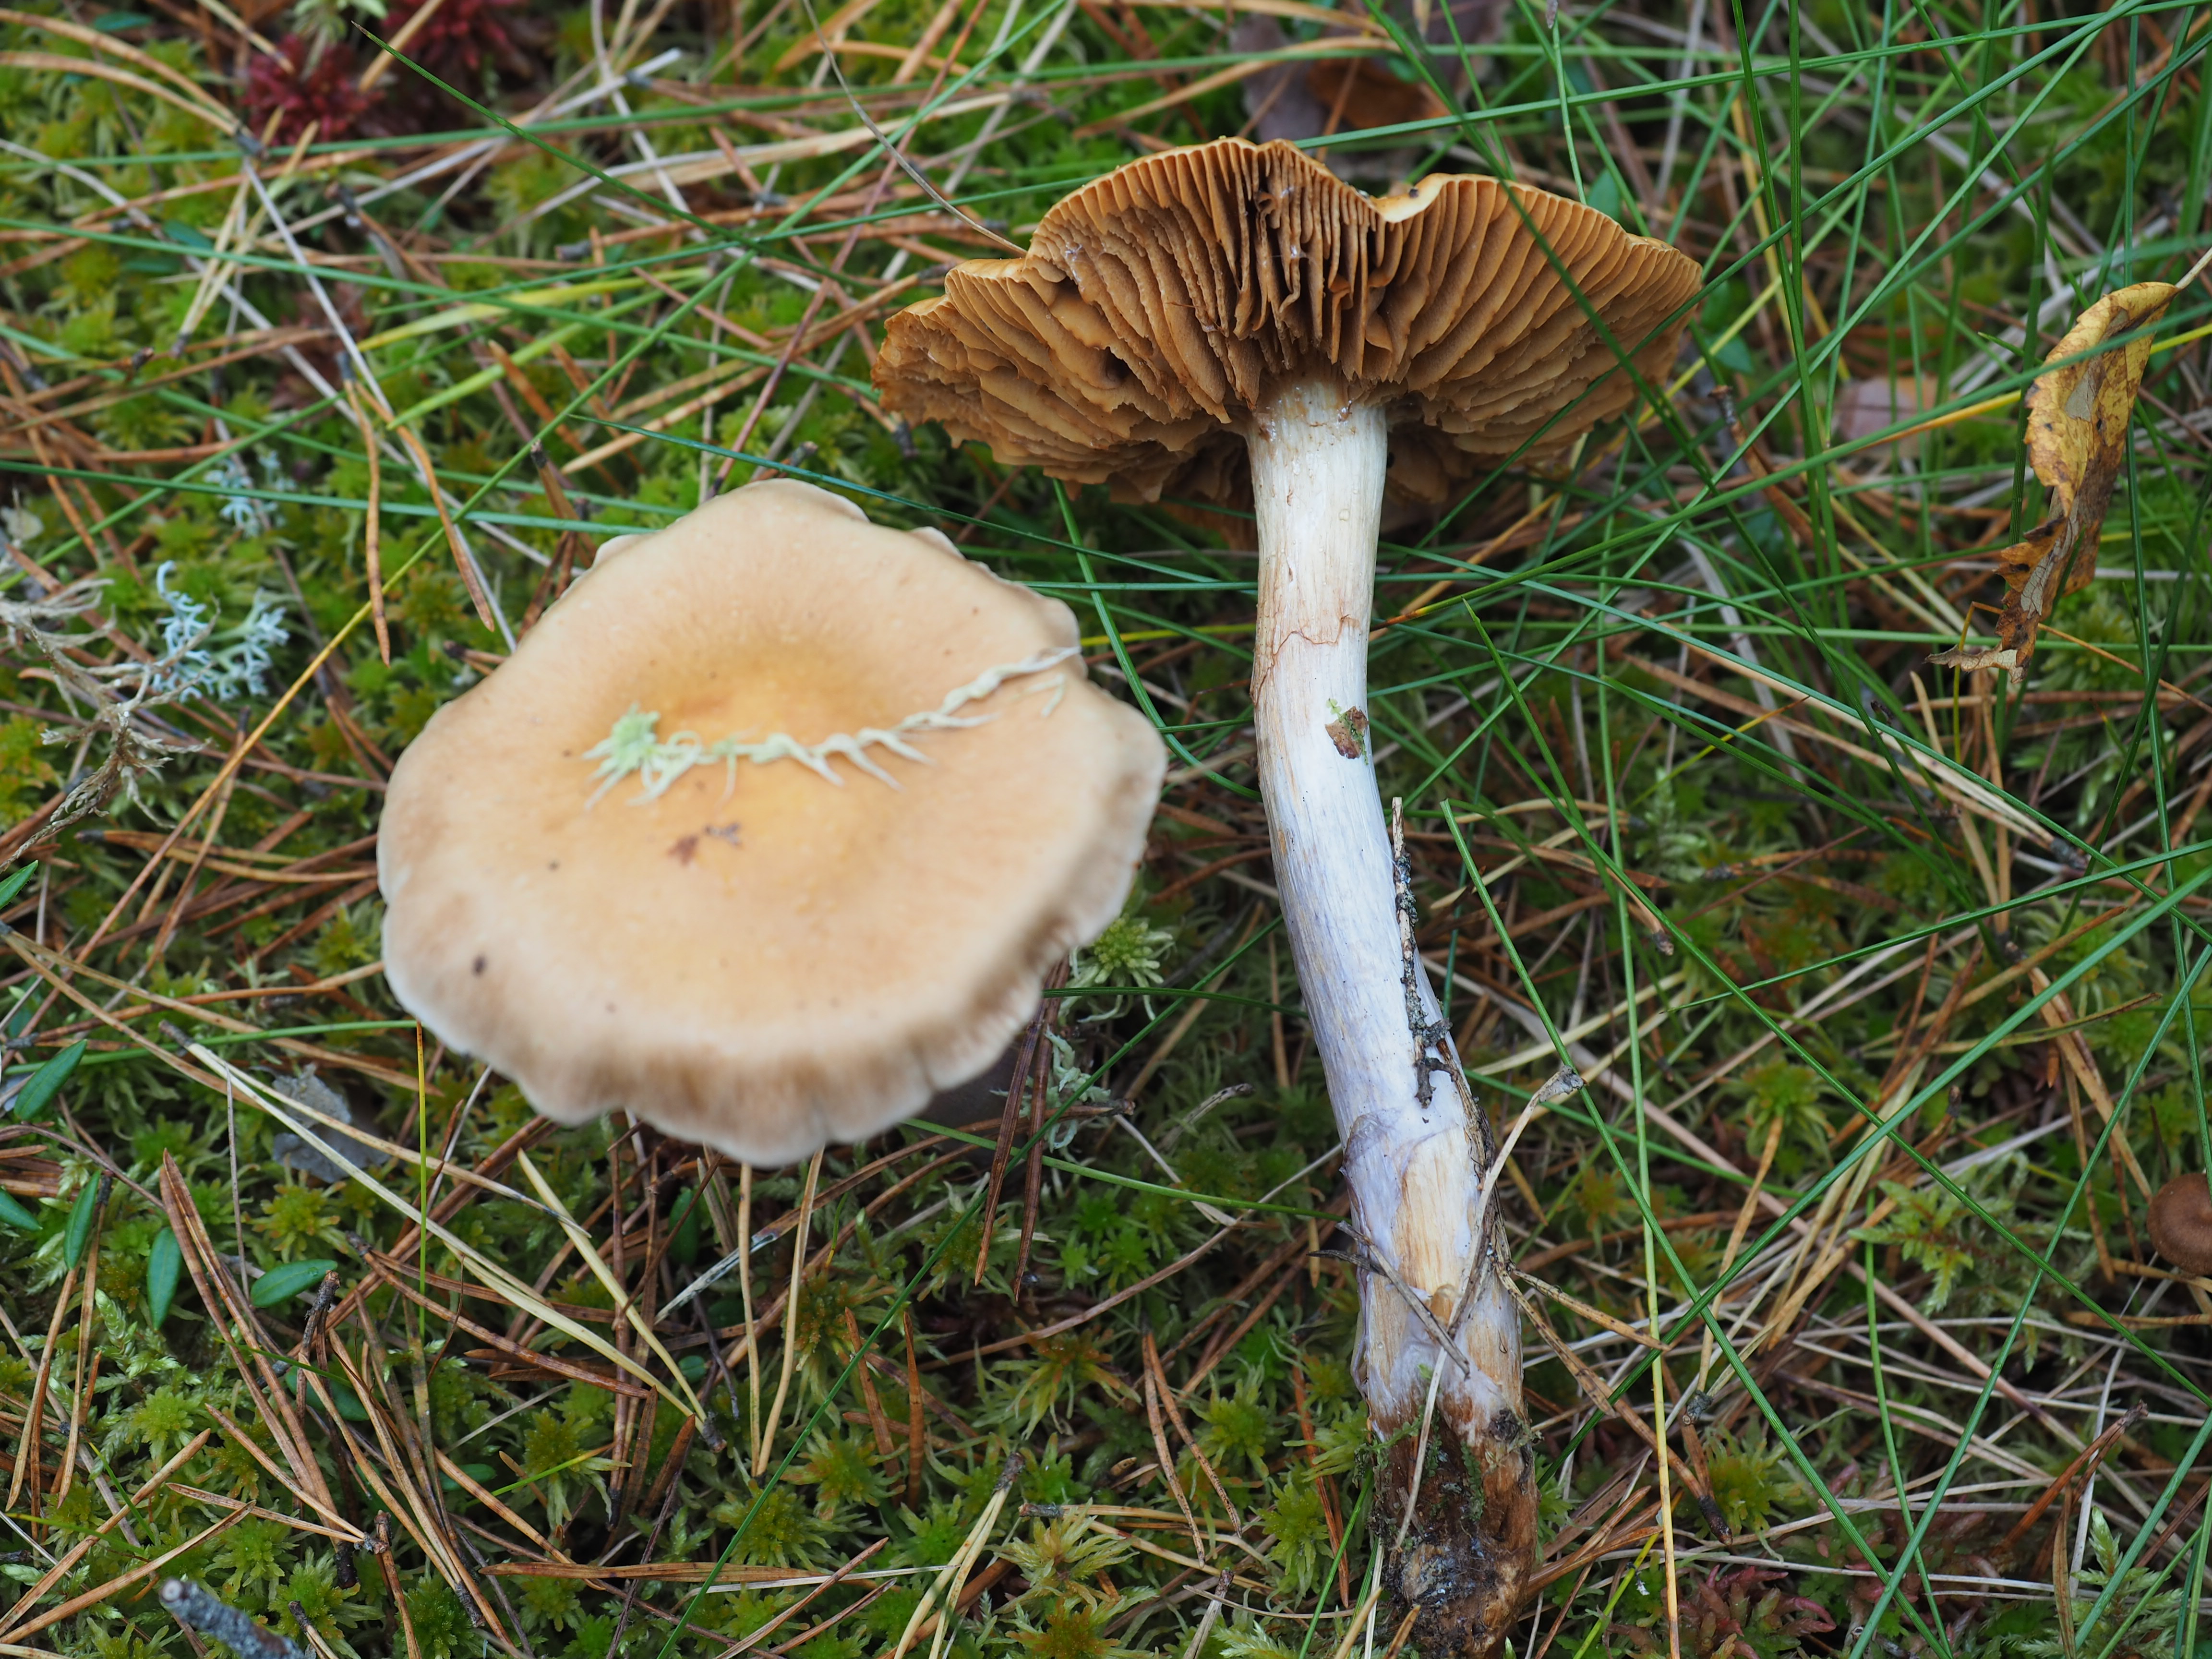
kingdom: Fungi
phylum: Basidiomycota
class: Agaricomycetes
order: Agaricales
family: Cortinariaceae
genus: Cortinarius
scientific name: Cortinarius
